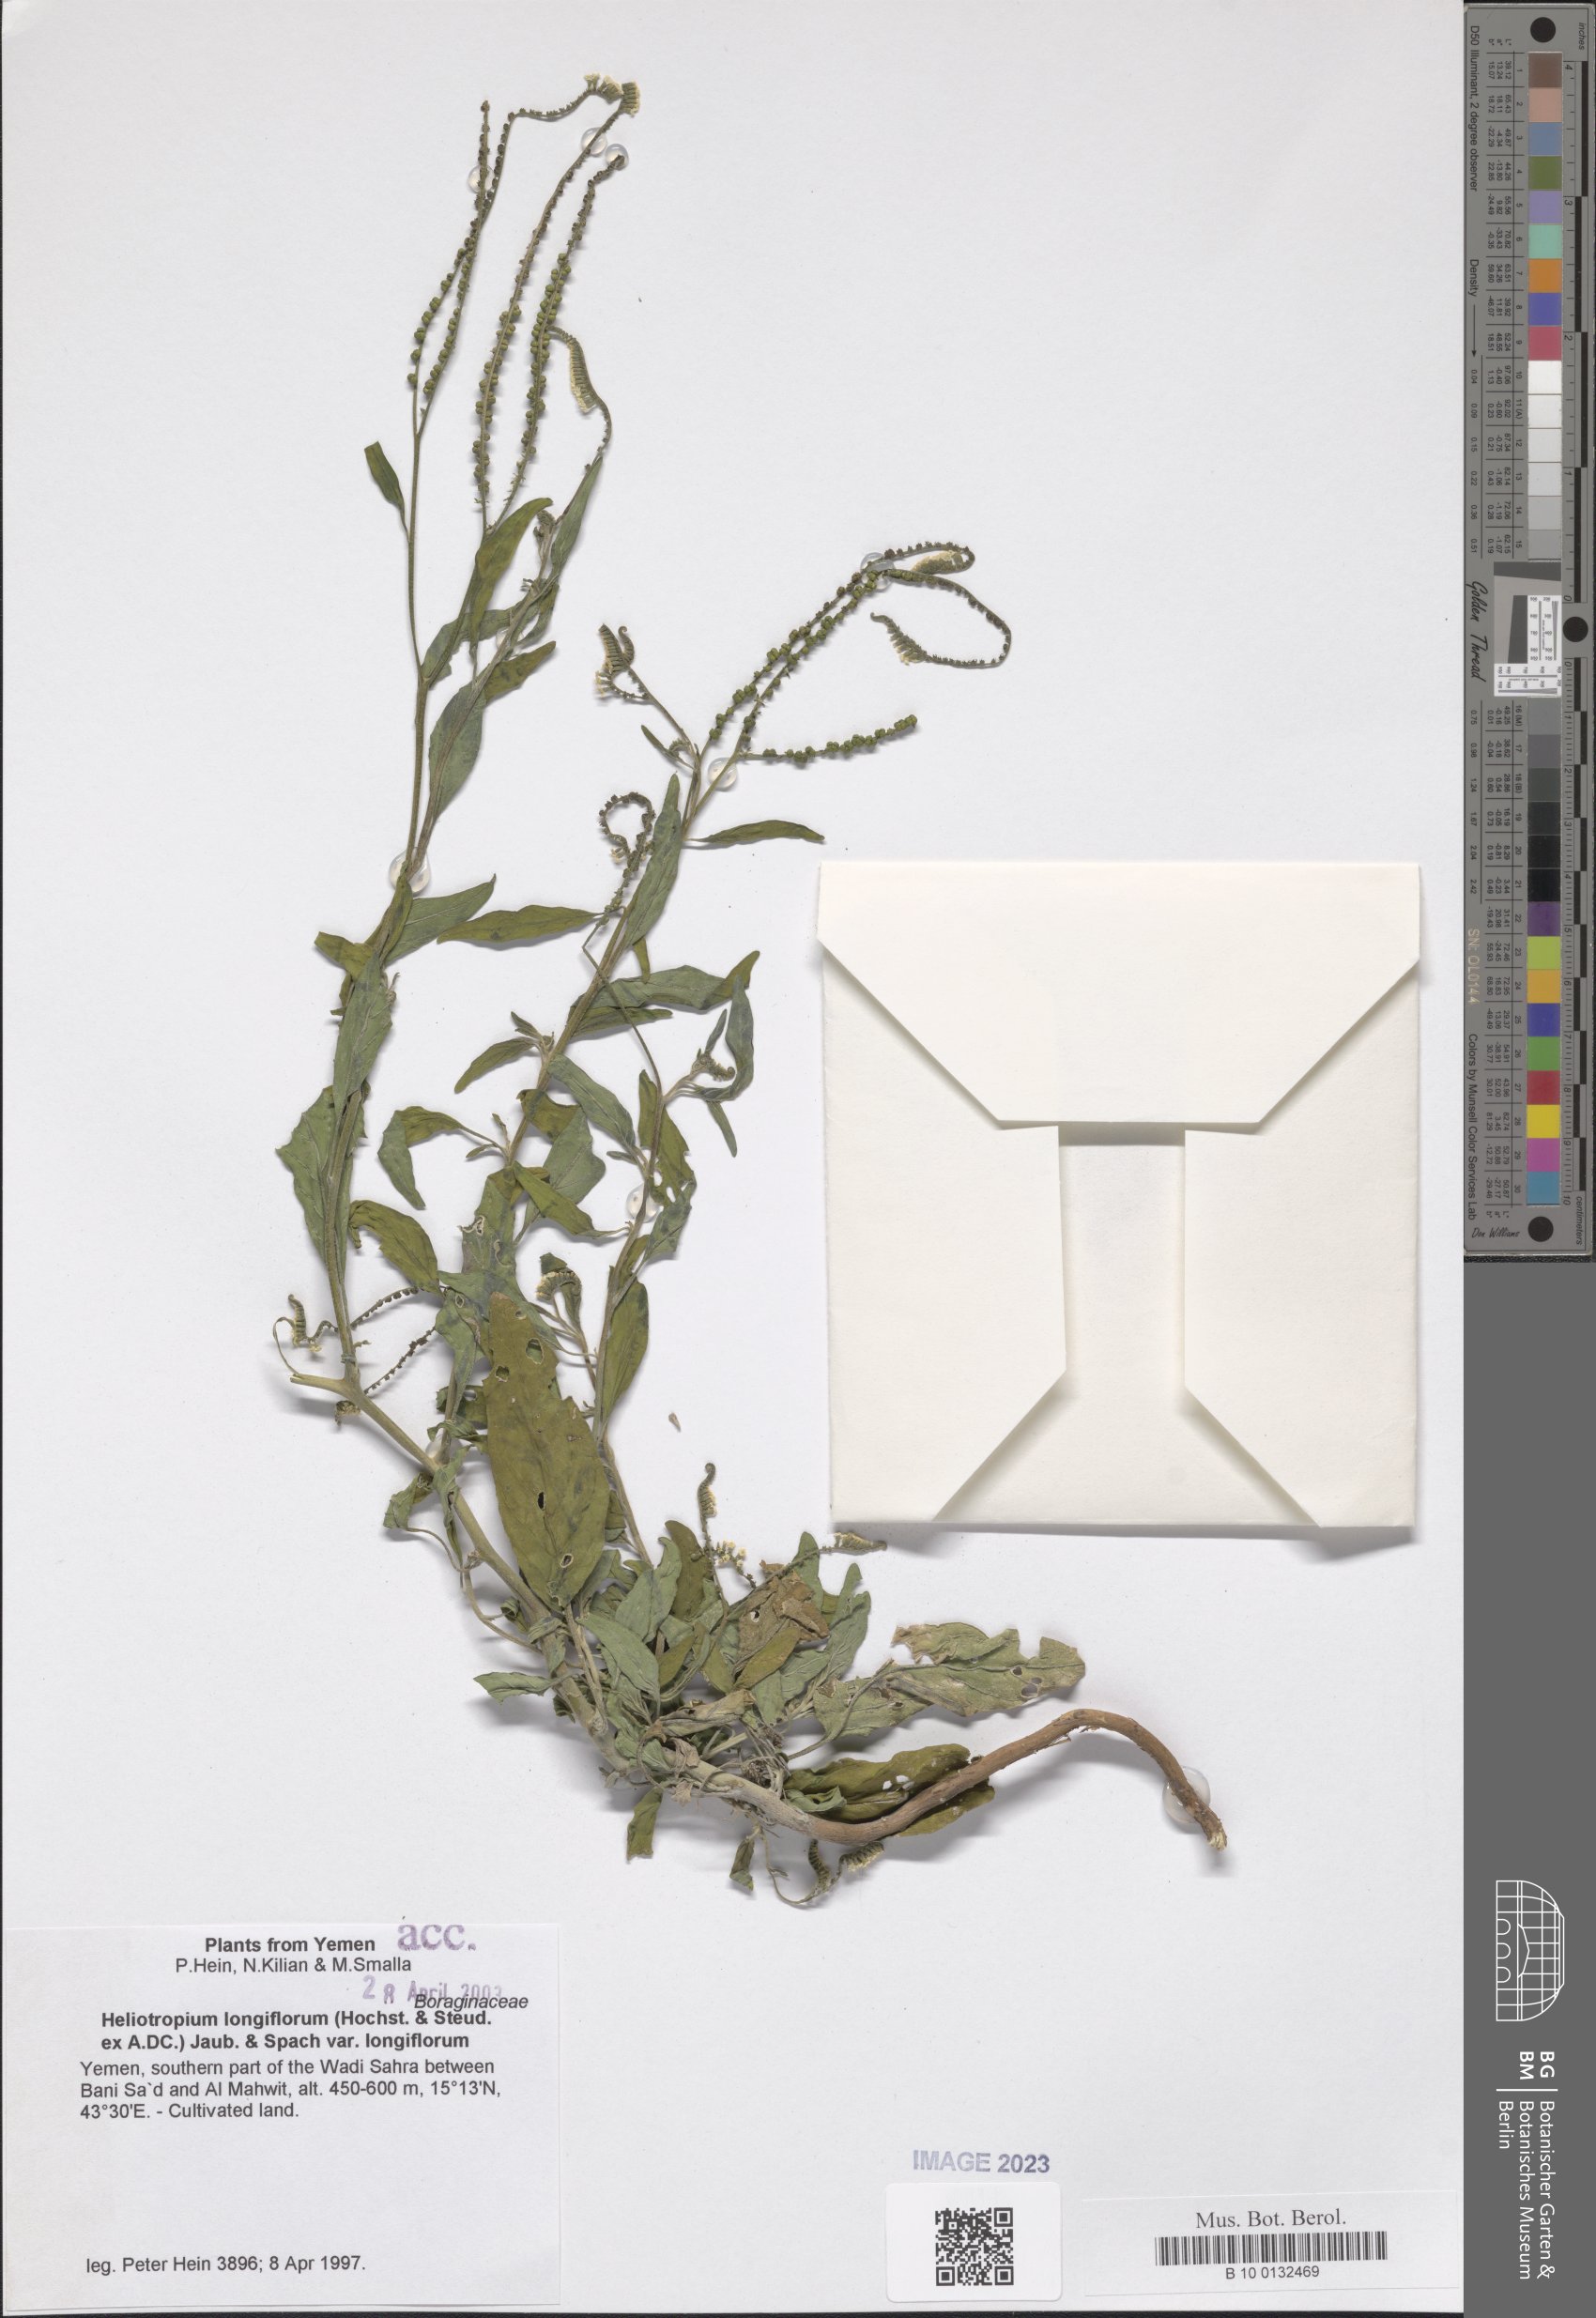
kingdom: Plantae
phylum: Tracheophyta
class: Magnoliopsida
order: Boraginales
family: Heliotropiaceae
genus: Heliotropium
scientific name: Heliotropium longiflorum
